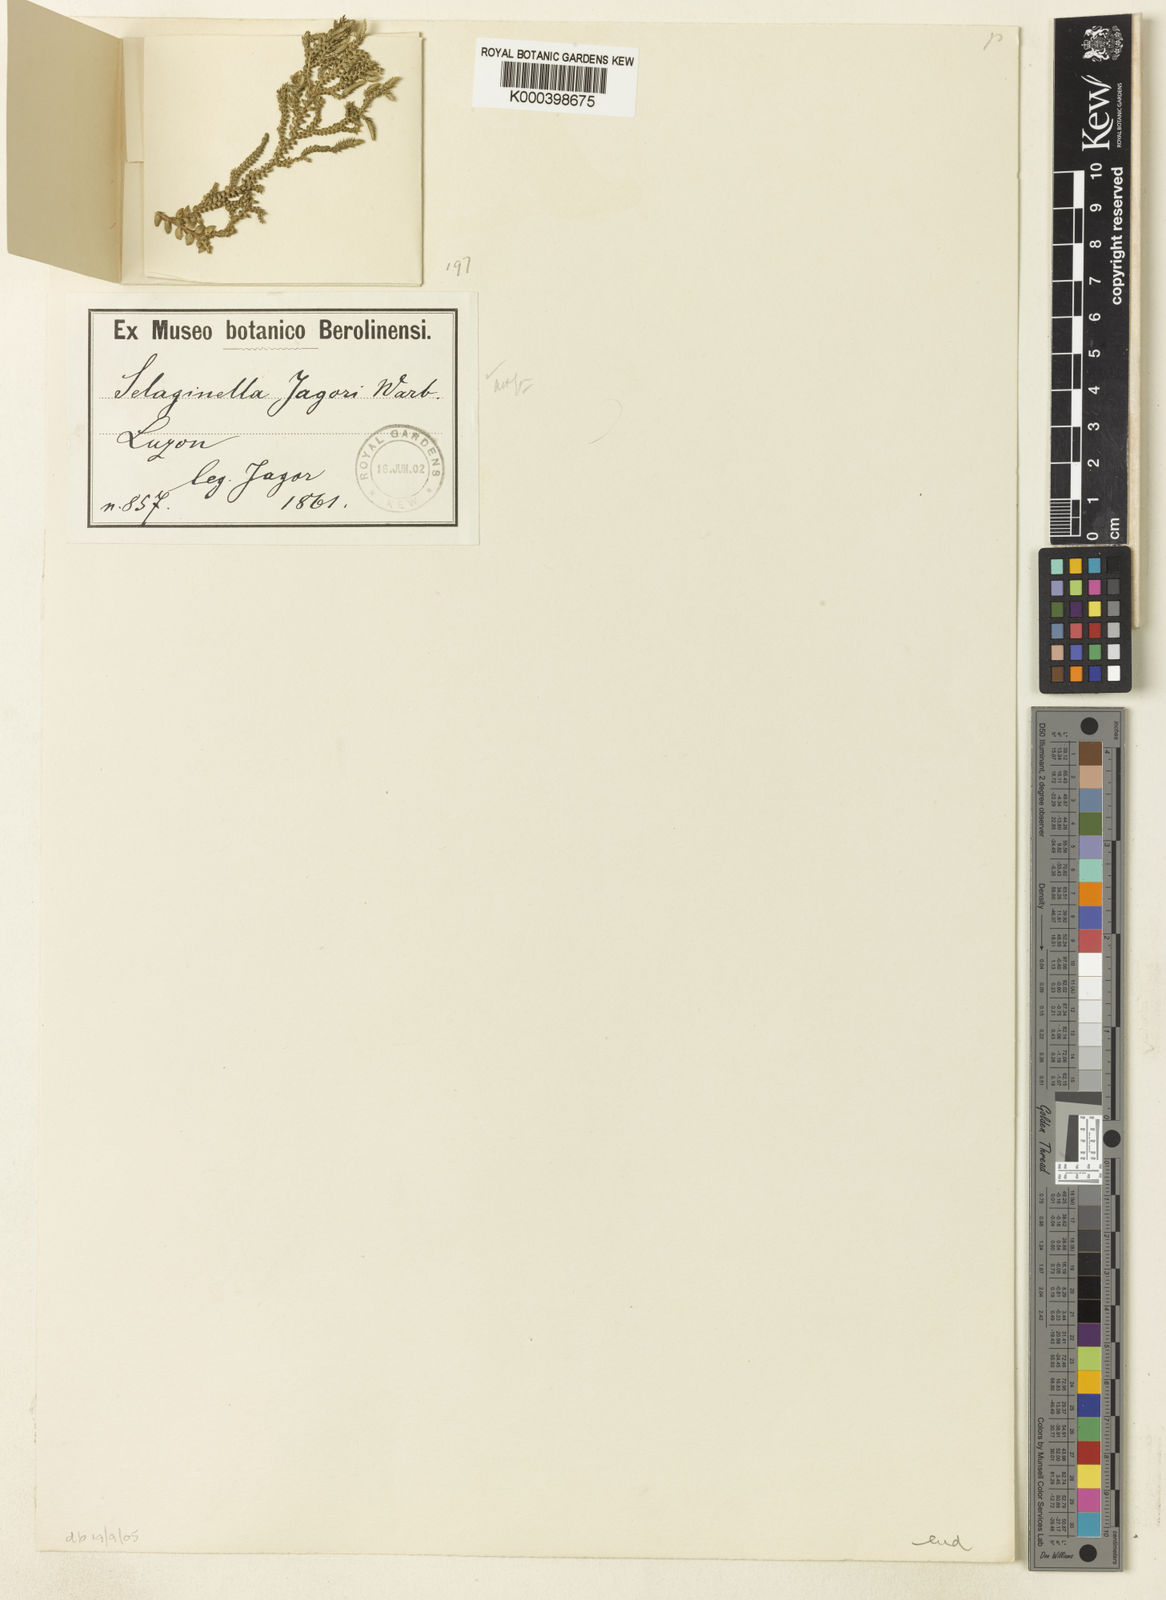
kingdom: Plantae
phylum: Tracheophyta
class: Lycopodiopsida
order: Selaginellales
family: Selaginellaceae
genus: Selaginella
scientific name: Selaginella jagorii
